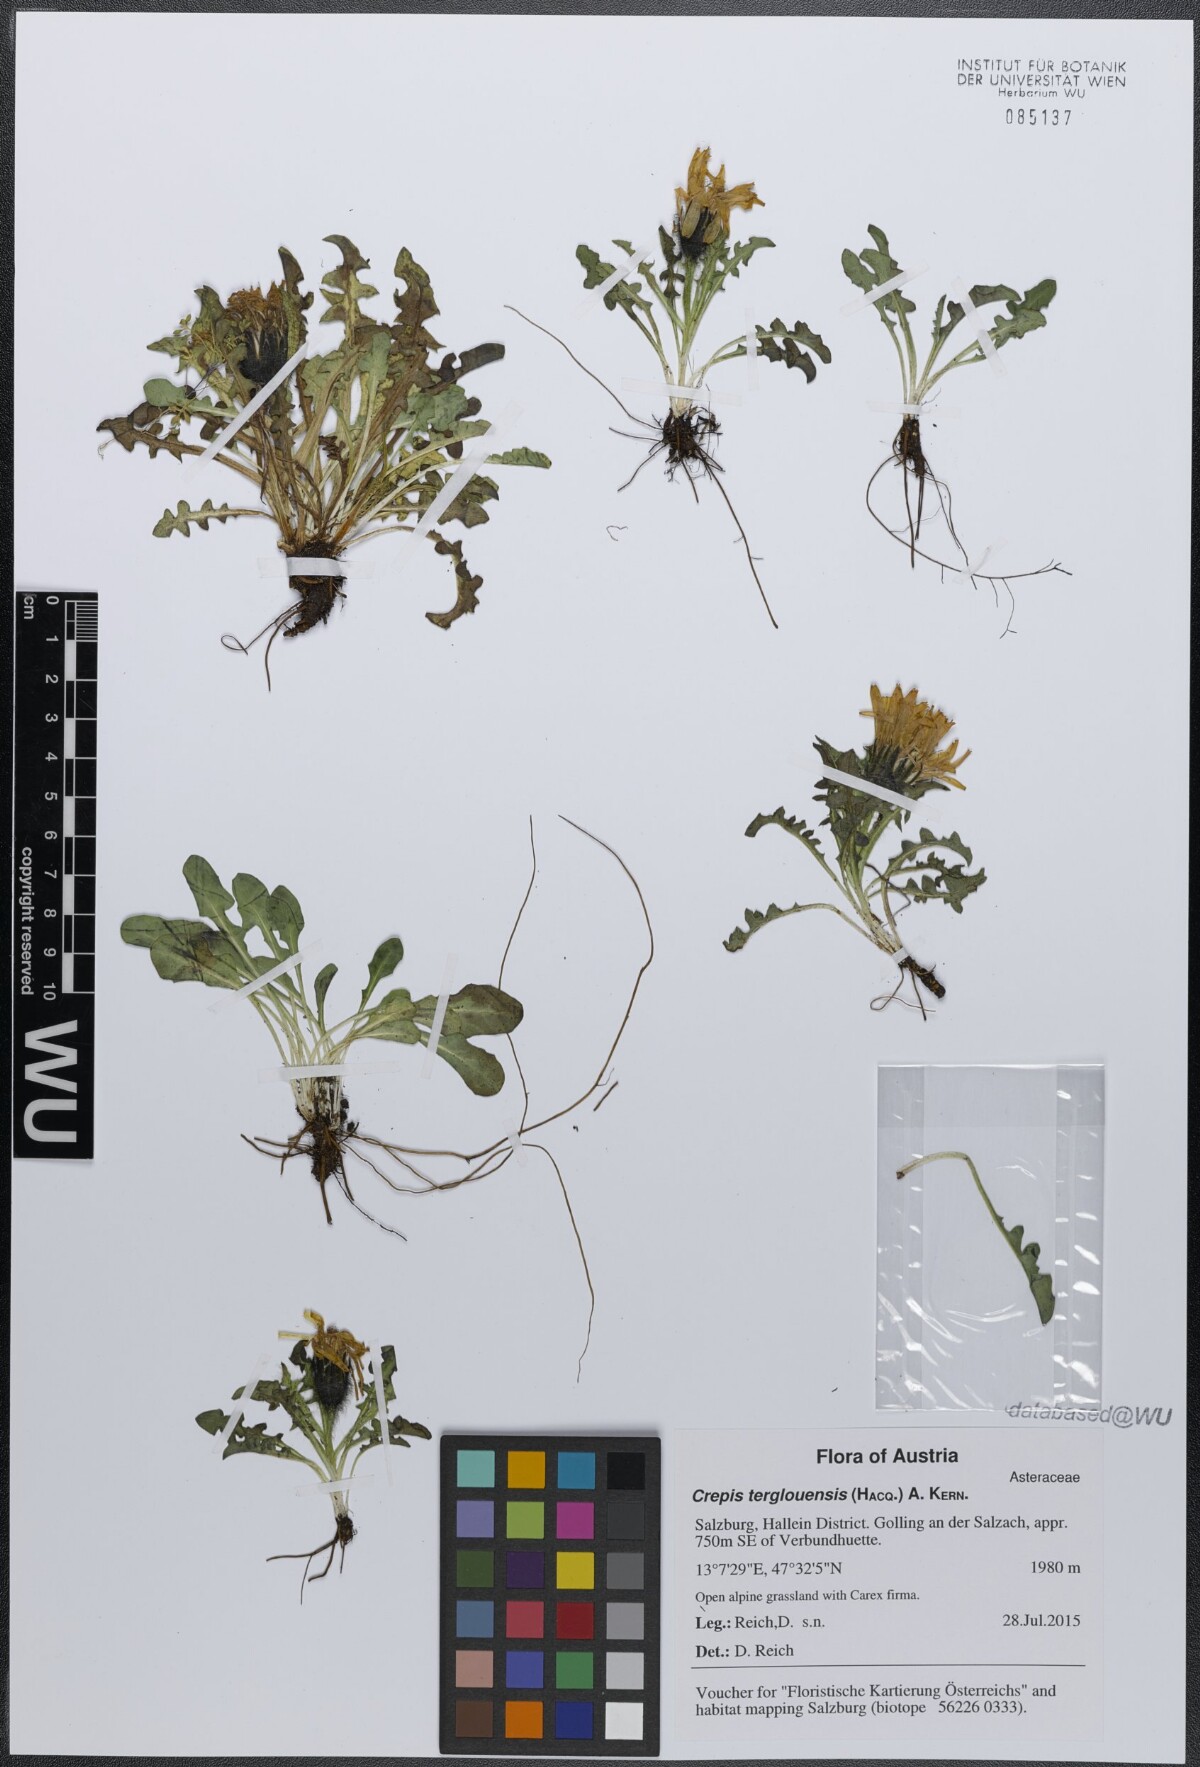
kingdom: Plantae
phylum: Tracheophyta
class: Magnoliopsida
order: Asterales
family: Asteraceae
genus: Crepis
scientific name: Crepis terglouensis
